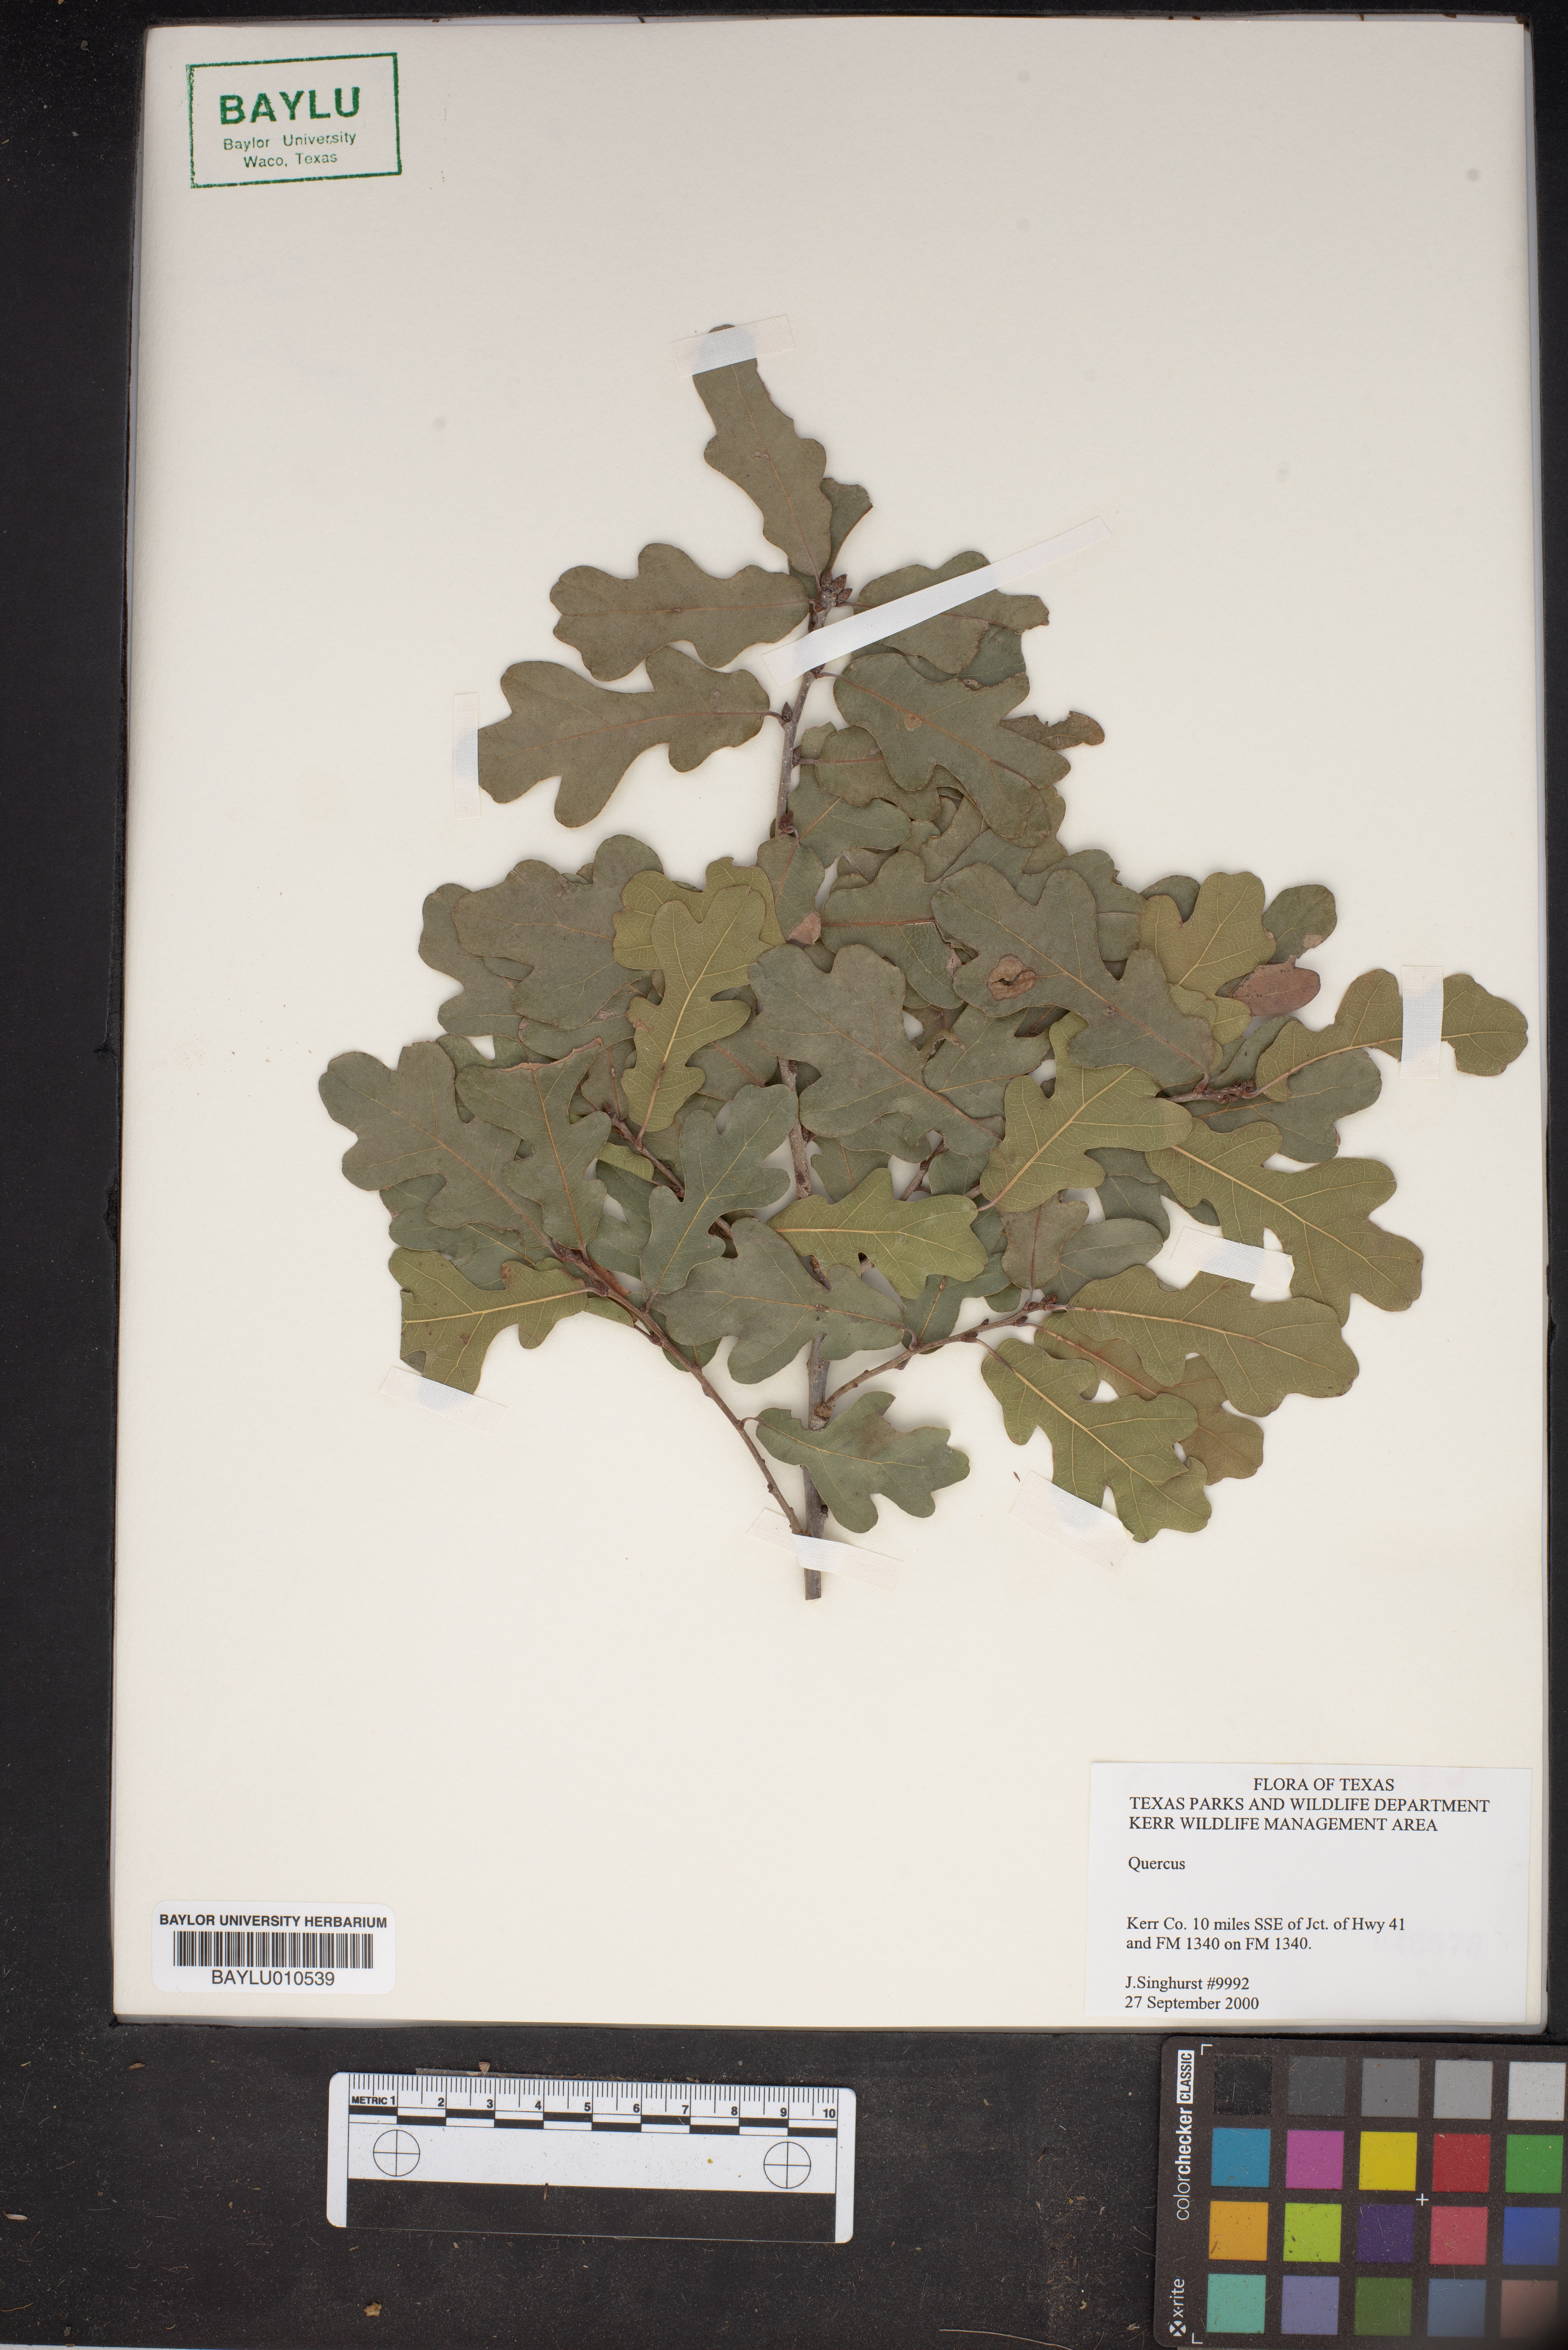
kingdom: Plantae
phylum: Tracheophyta
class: Magnoliopsida
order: Fagales
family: Fagaceae
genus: Quercus
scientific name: Quercus
